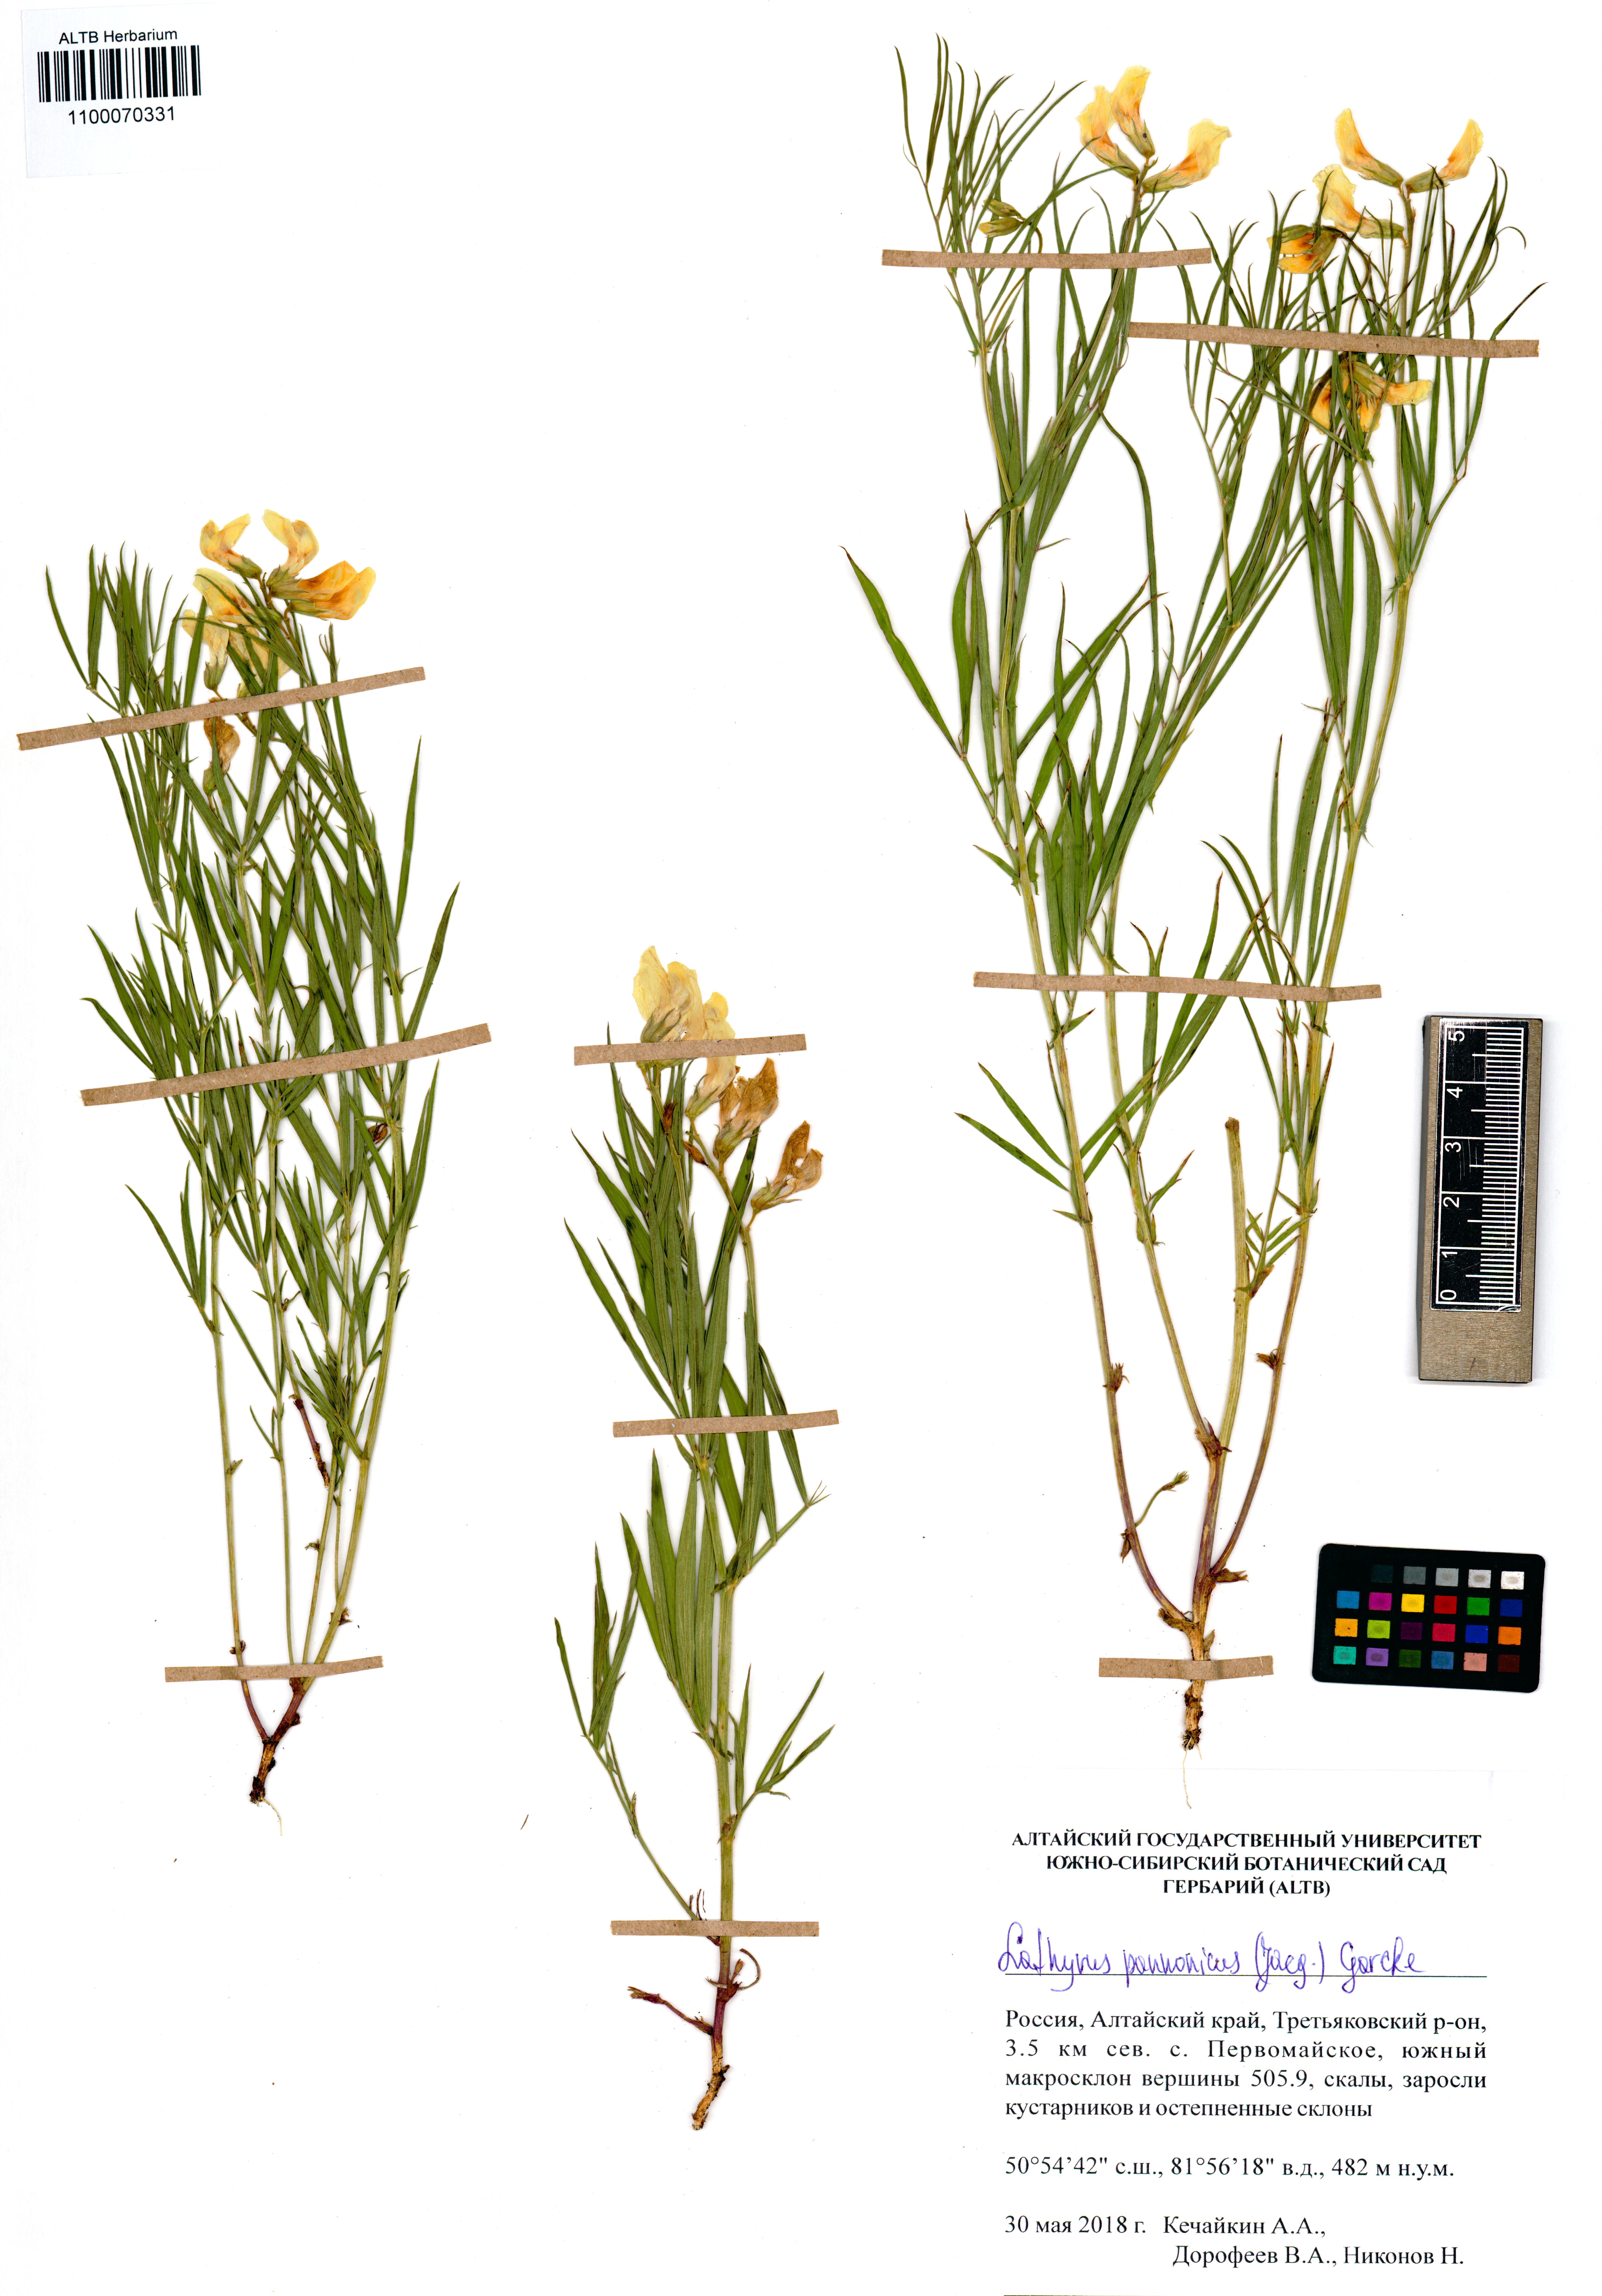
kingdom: Plantae
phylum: Tracheophyta
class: Magnoliopsida
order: Fabales
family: Fabaceae
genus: Lathyrus
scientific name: Lathyrus pannonicus
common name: Pea
